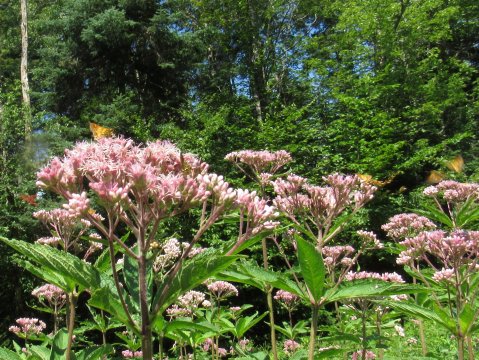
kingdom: Animalia
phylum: Arthropoda
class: Insecta
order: Lepidoptera
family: Hesperiidae
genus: Polites
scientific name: Polites coras
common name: Peck's Skipper
